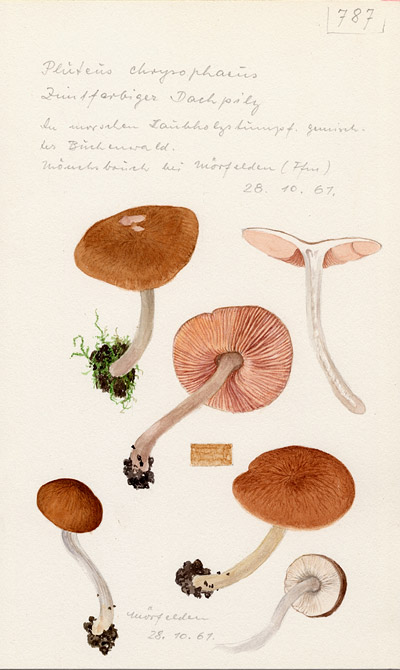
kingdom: Fungi
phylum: Basidiomycota
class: Agaricomycetes
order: Agaricales
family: Pluteaceae
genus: Pluteus
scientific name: Pluteus chrysophaeus
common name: Yellow shield
